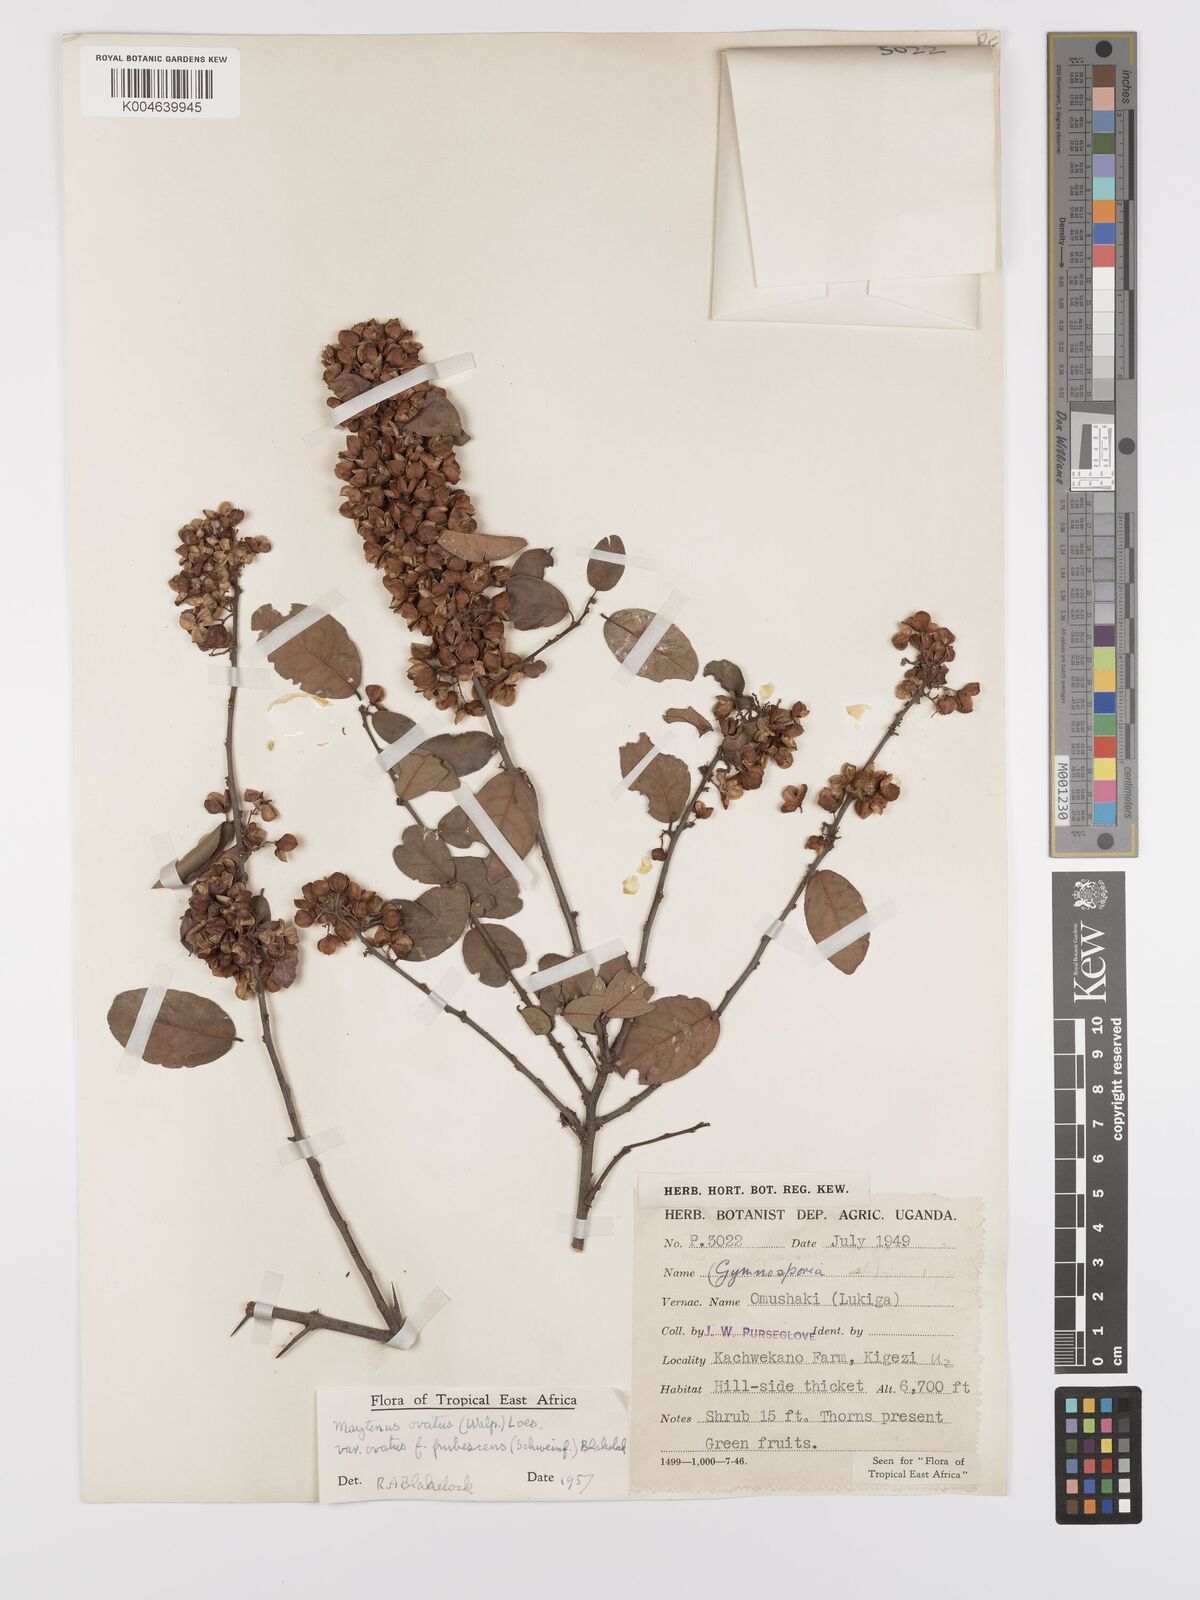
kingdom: Plantae
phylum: Tracheophyta
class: Magnoliopsida
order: Celastrales
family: Celastraceae
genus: Gymnosporia
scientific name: Gymnosporia
